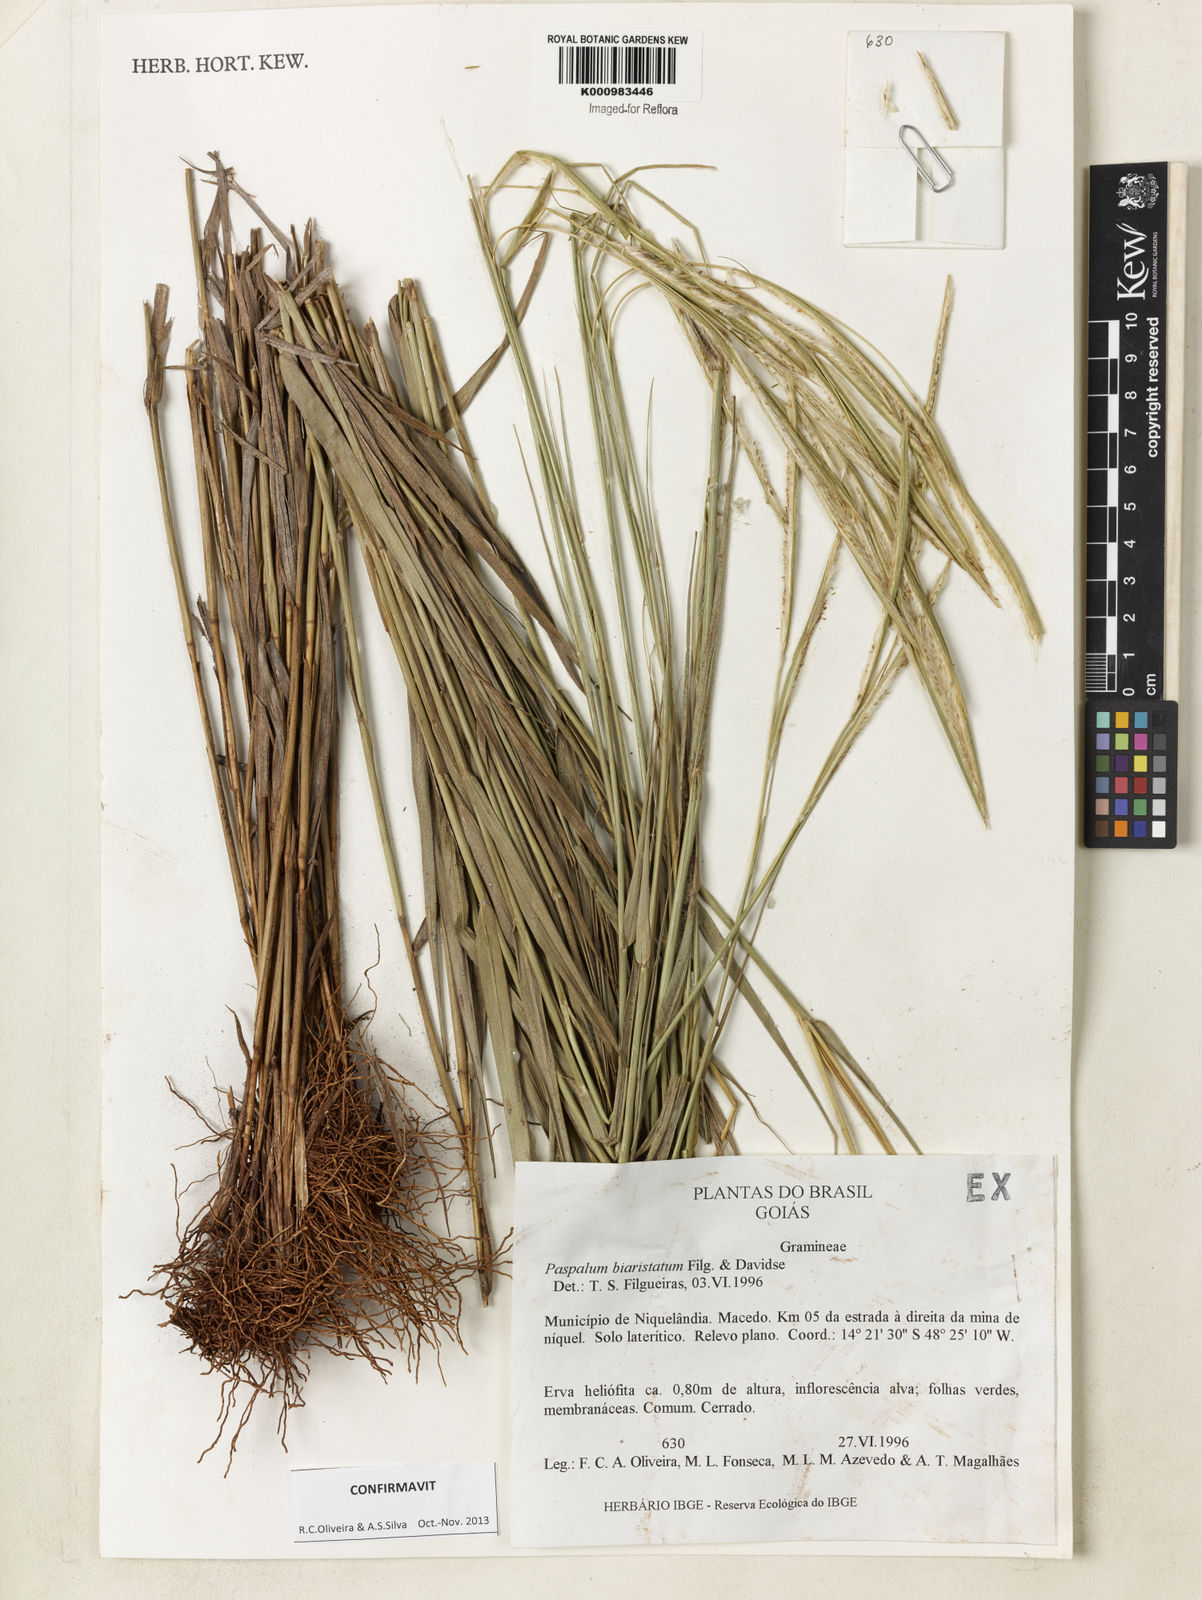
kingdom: Plantae
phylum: Tracheophyta
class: Liliopsida
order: Poales
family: Poaceae
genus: Paspalum
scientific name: Paspalum biaristatum
